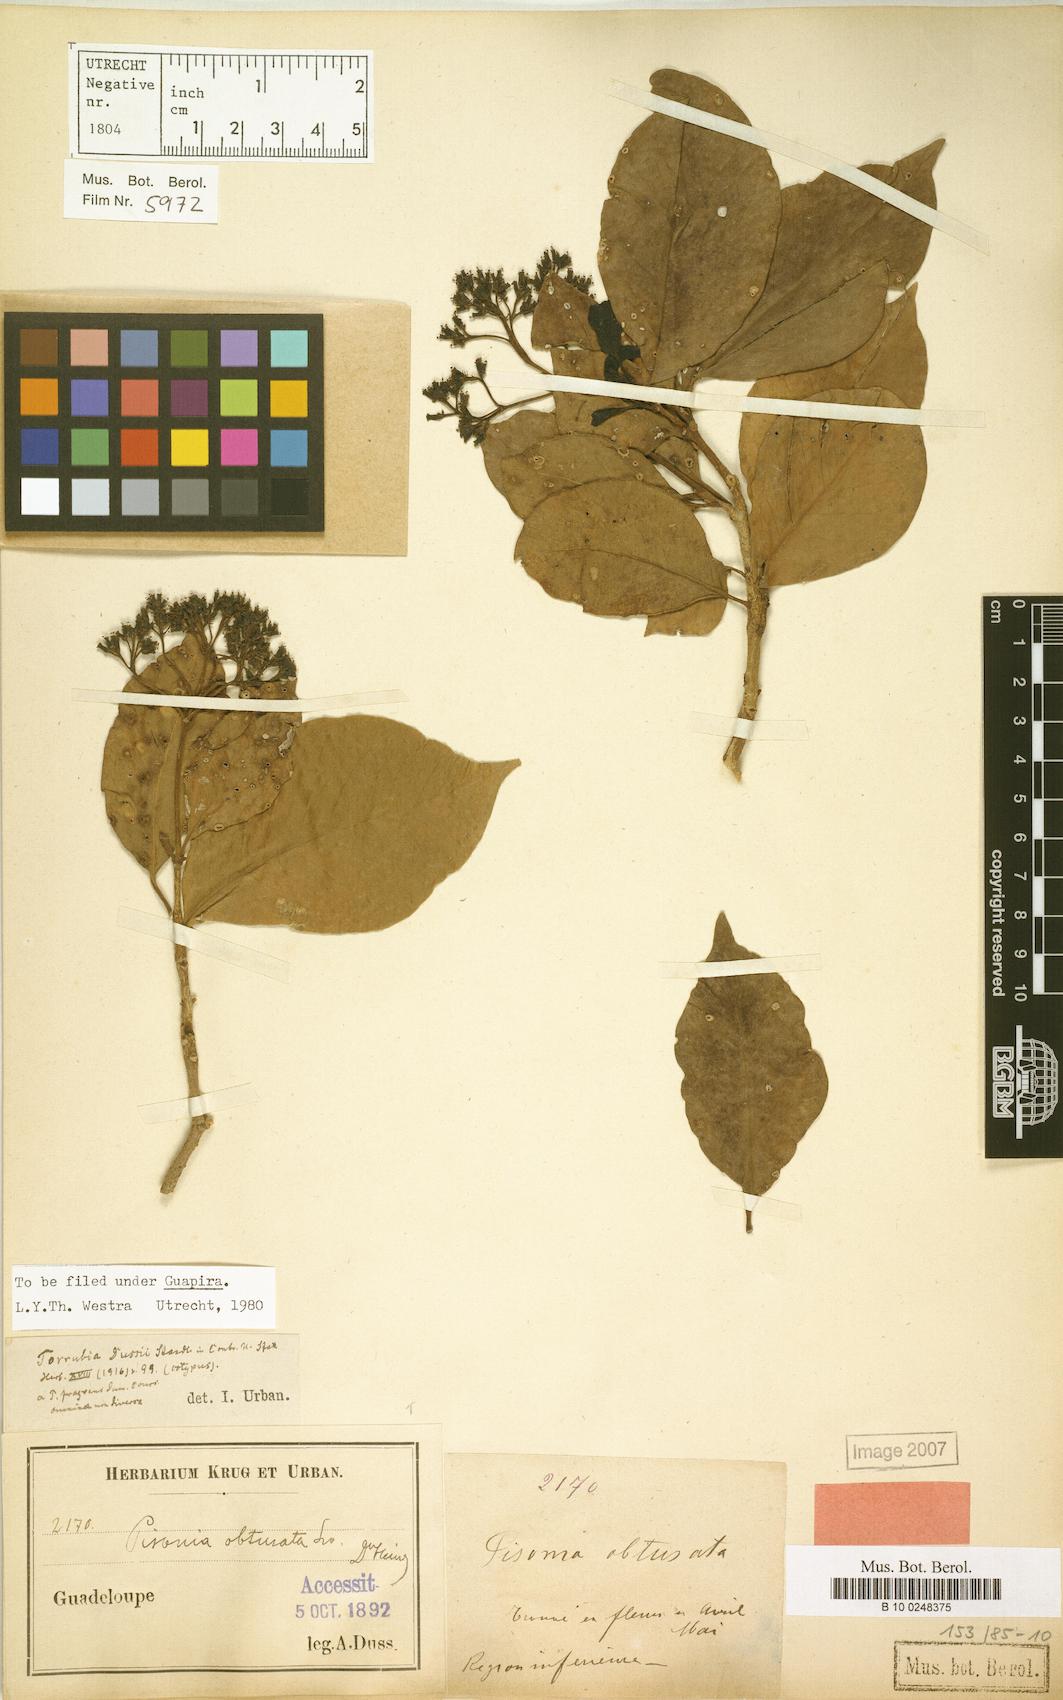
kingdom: Plantae
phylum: Tracheophyta
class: Magnoliopsida
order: Caryophyllales
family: Nyctaginaceae
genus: Guapira
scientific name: Guapira obtusata
